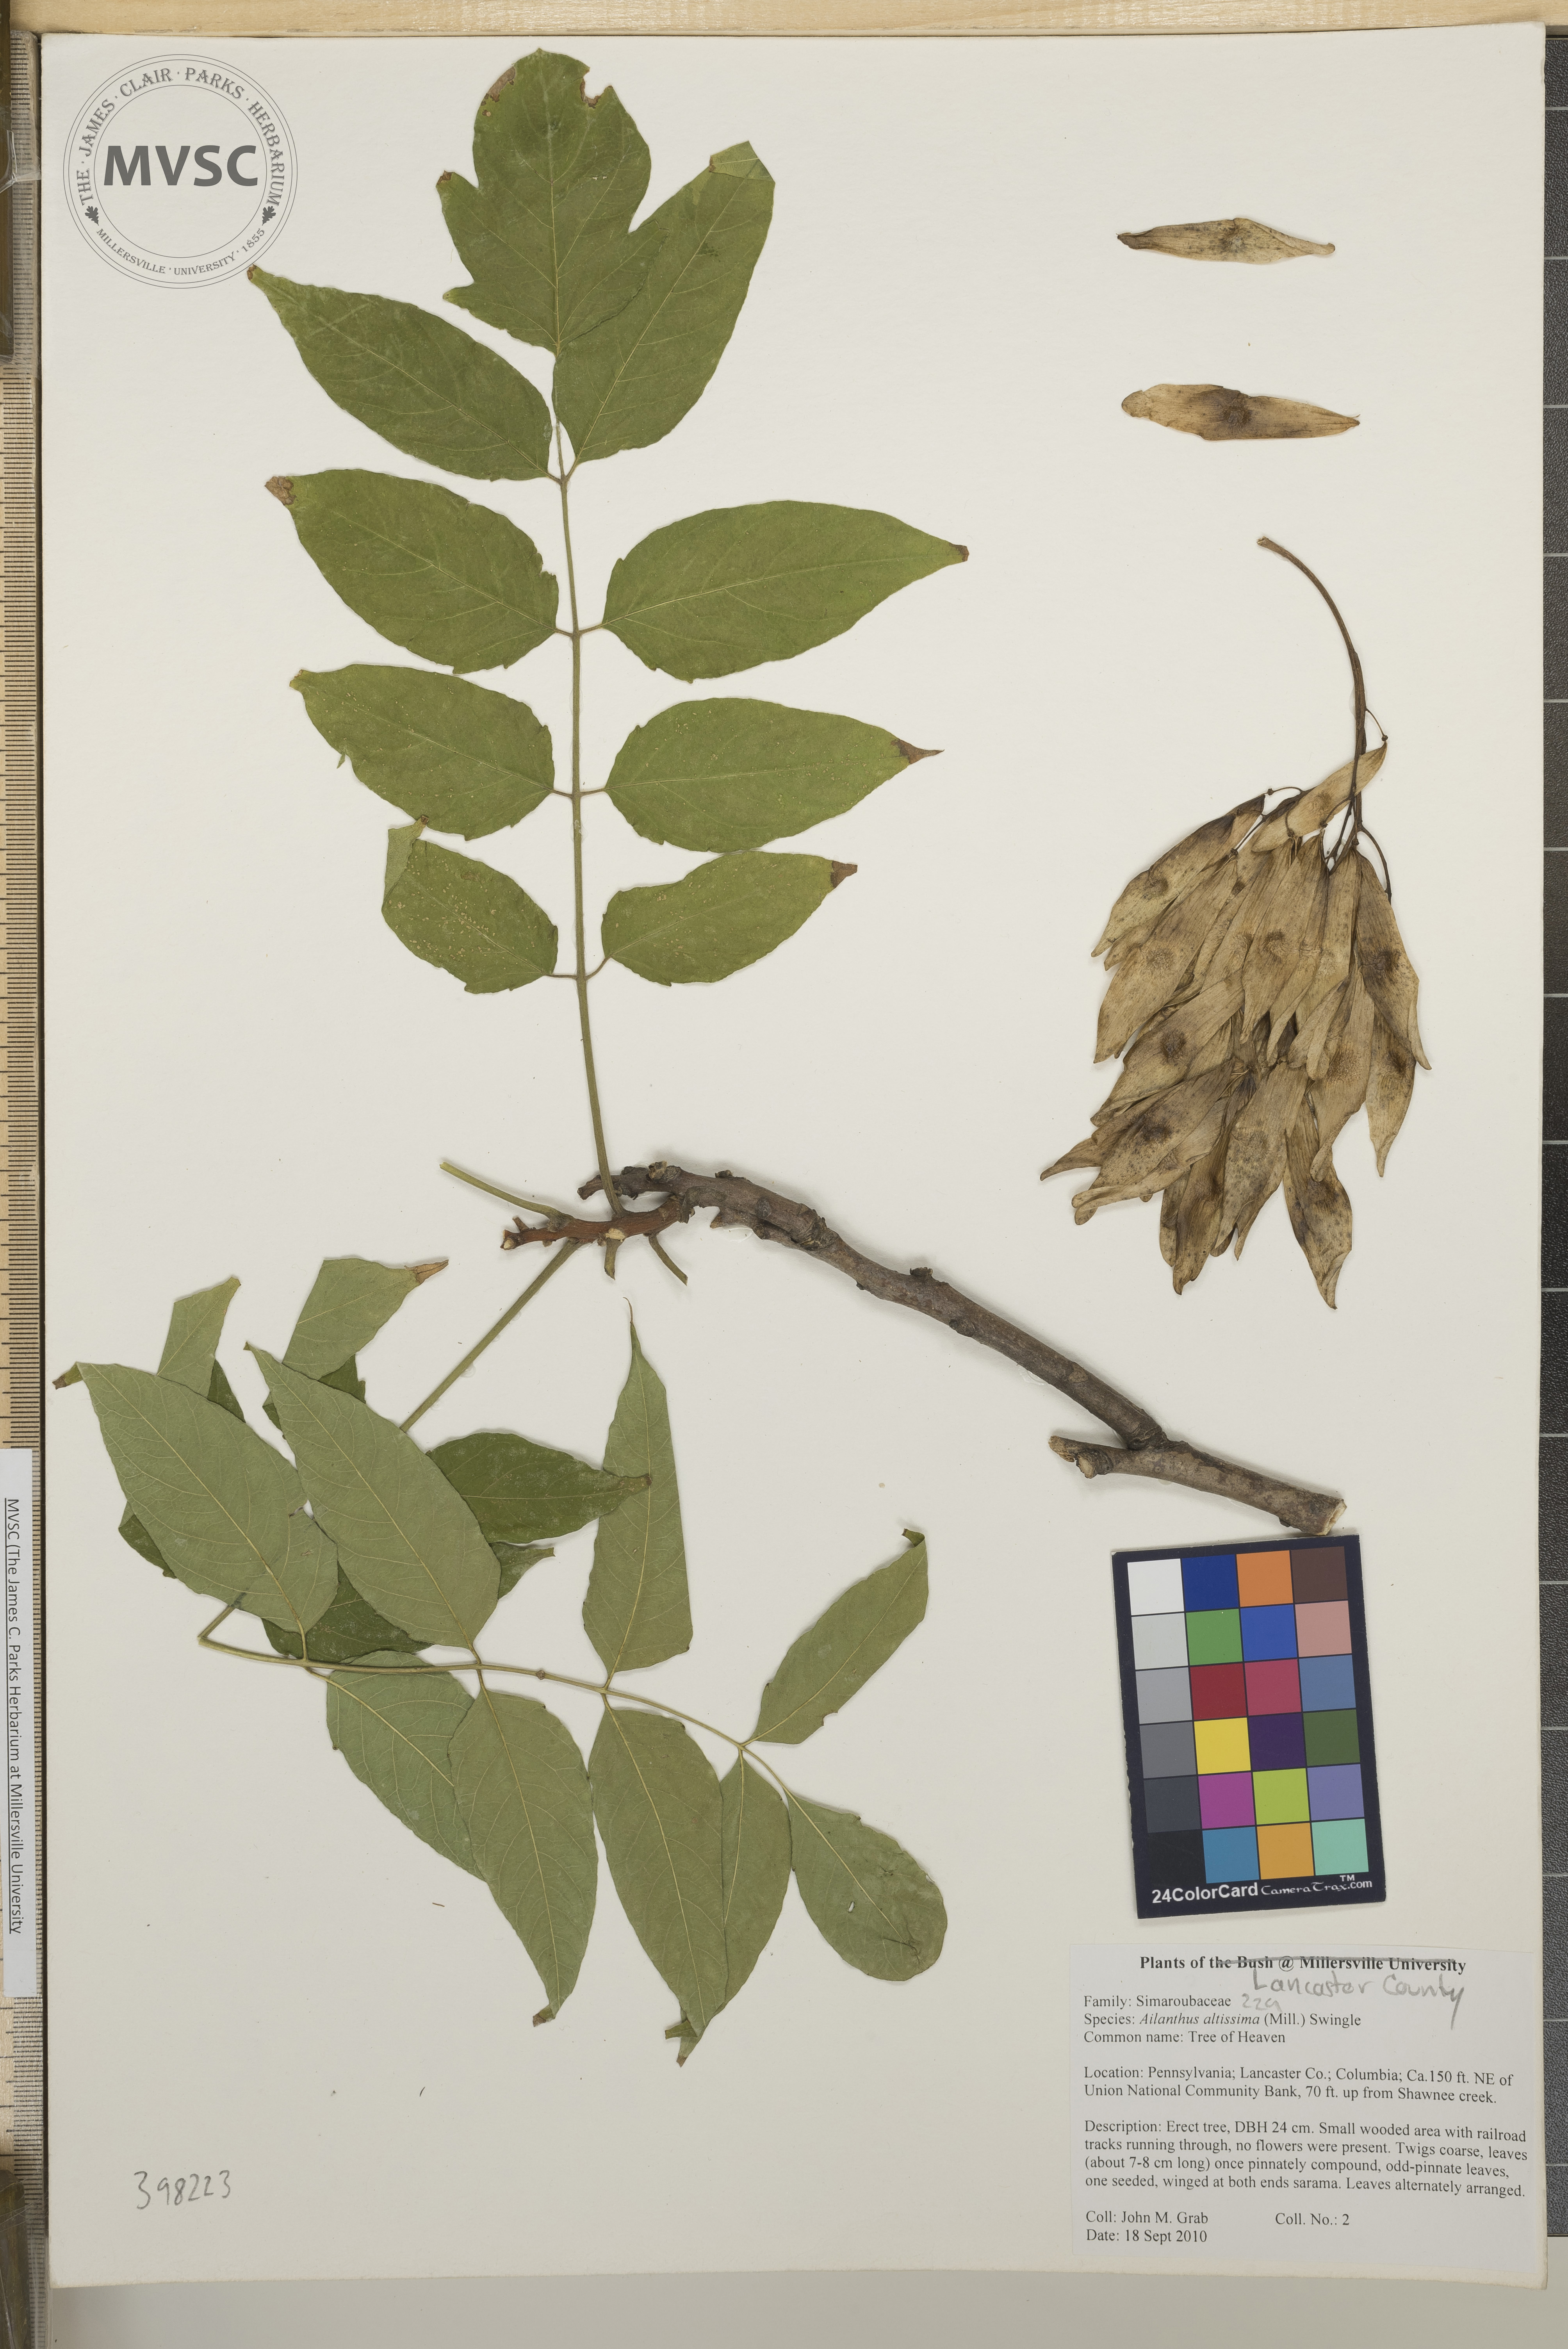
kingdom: Plantae
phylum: Tracheophyta
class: Magnoliopsida
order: Sapindales
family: Simaroubaceae
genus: Ailanthus
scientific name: Ailanthus altissima
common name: Tree-of-heaven
